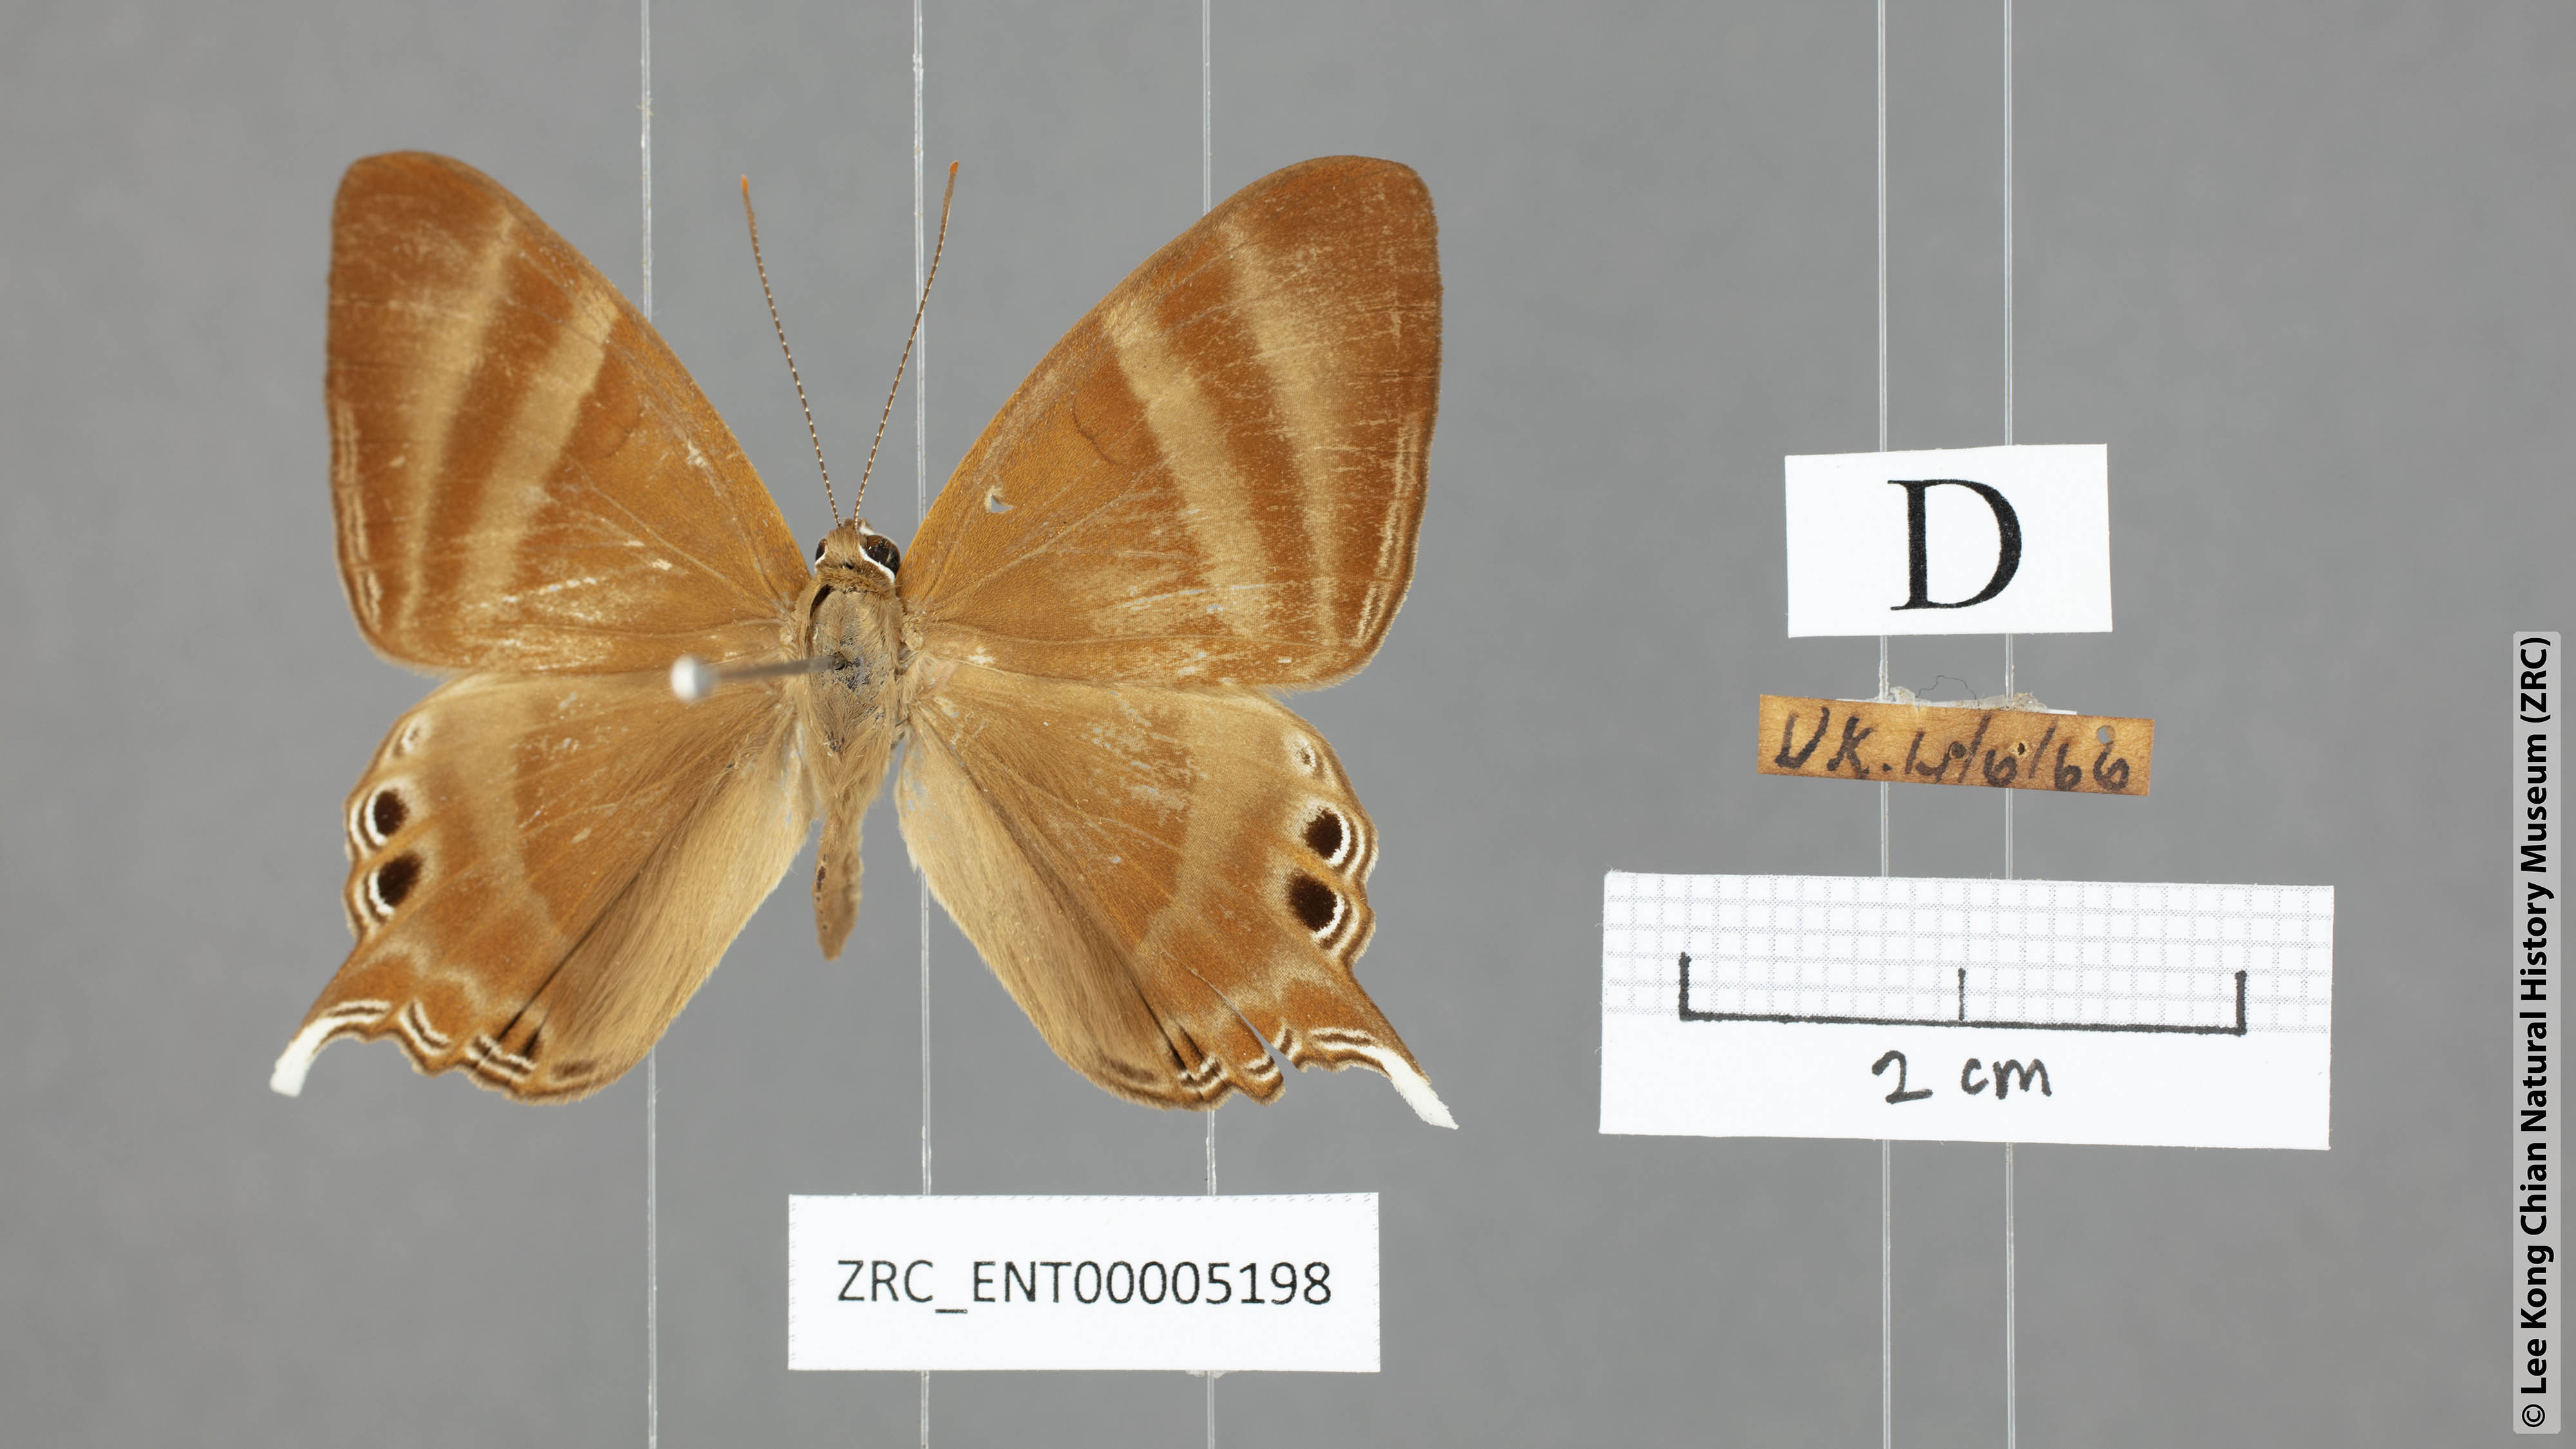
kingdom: Animalia
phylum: Arthropoda
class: Insecta
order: Lepidoptera
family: Riodinidae
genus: Archigenes
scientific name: Archigenes savitri
